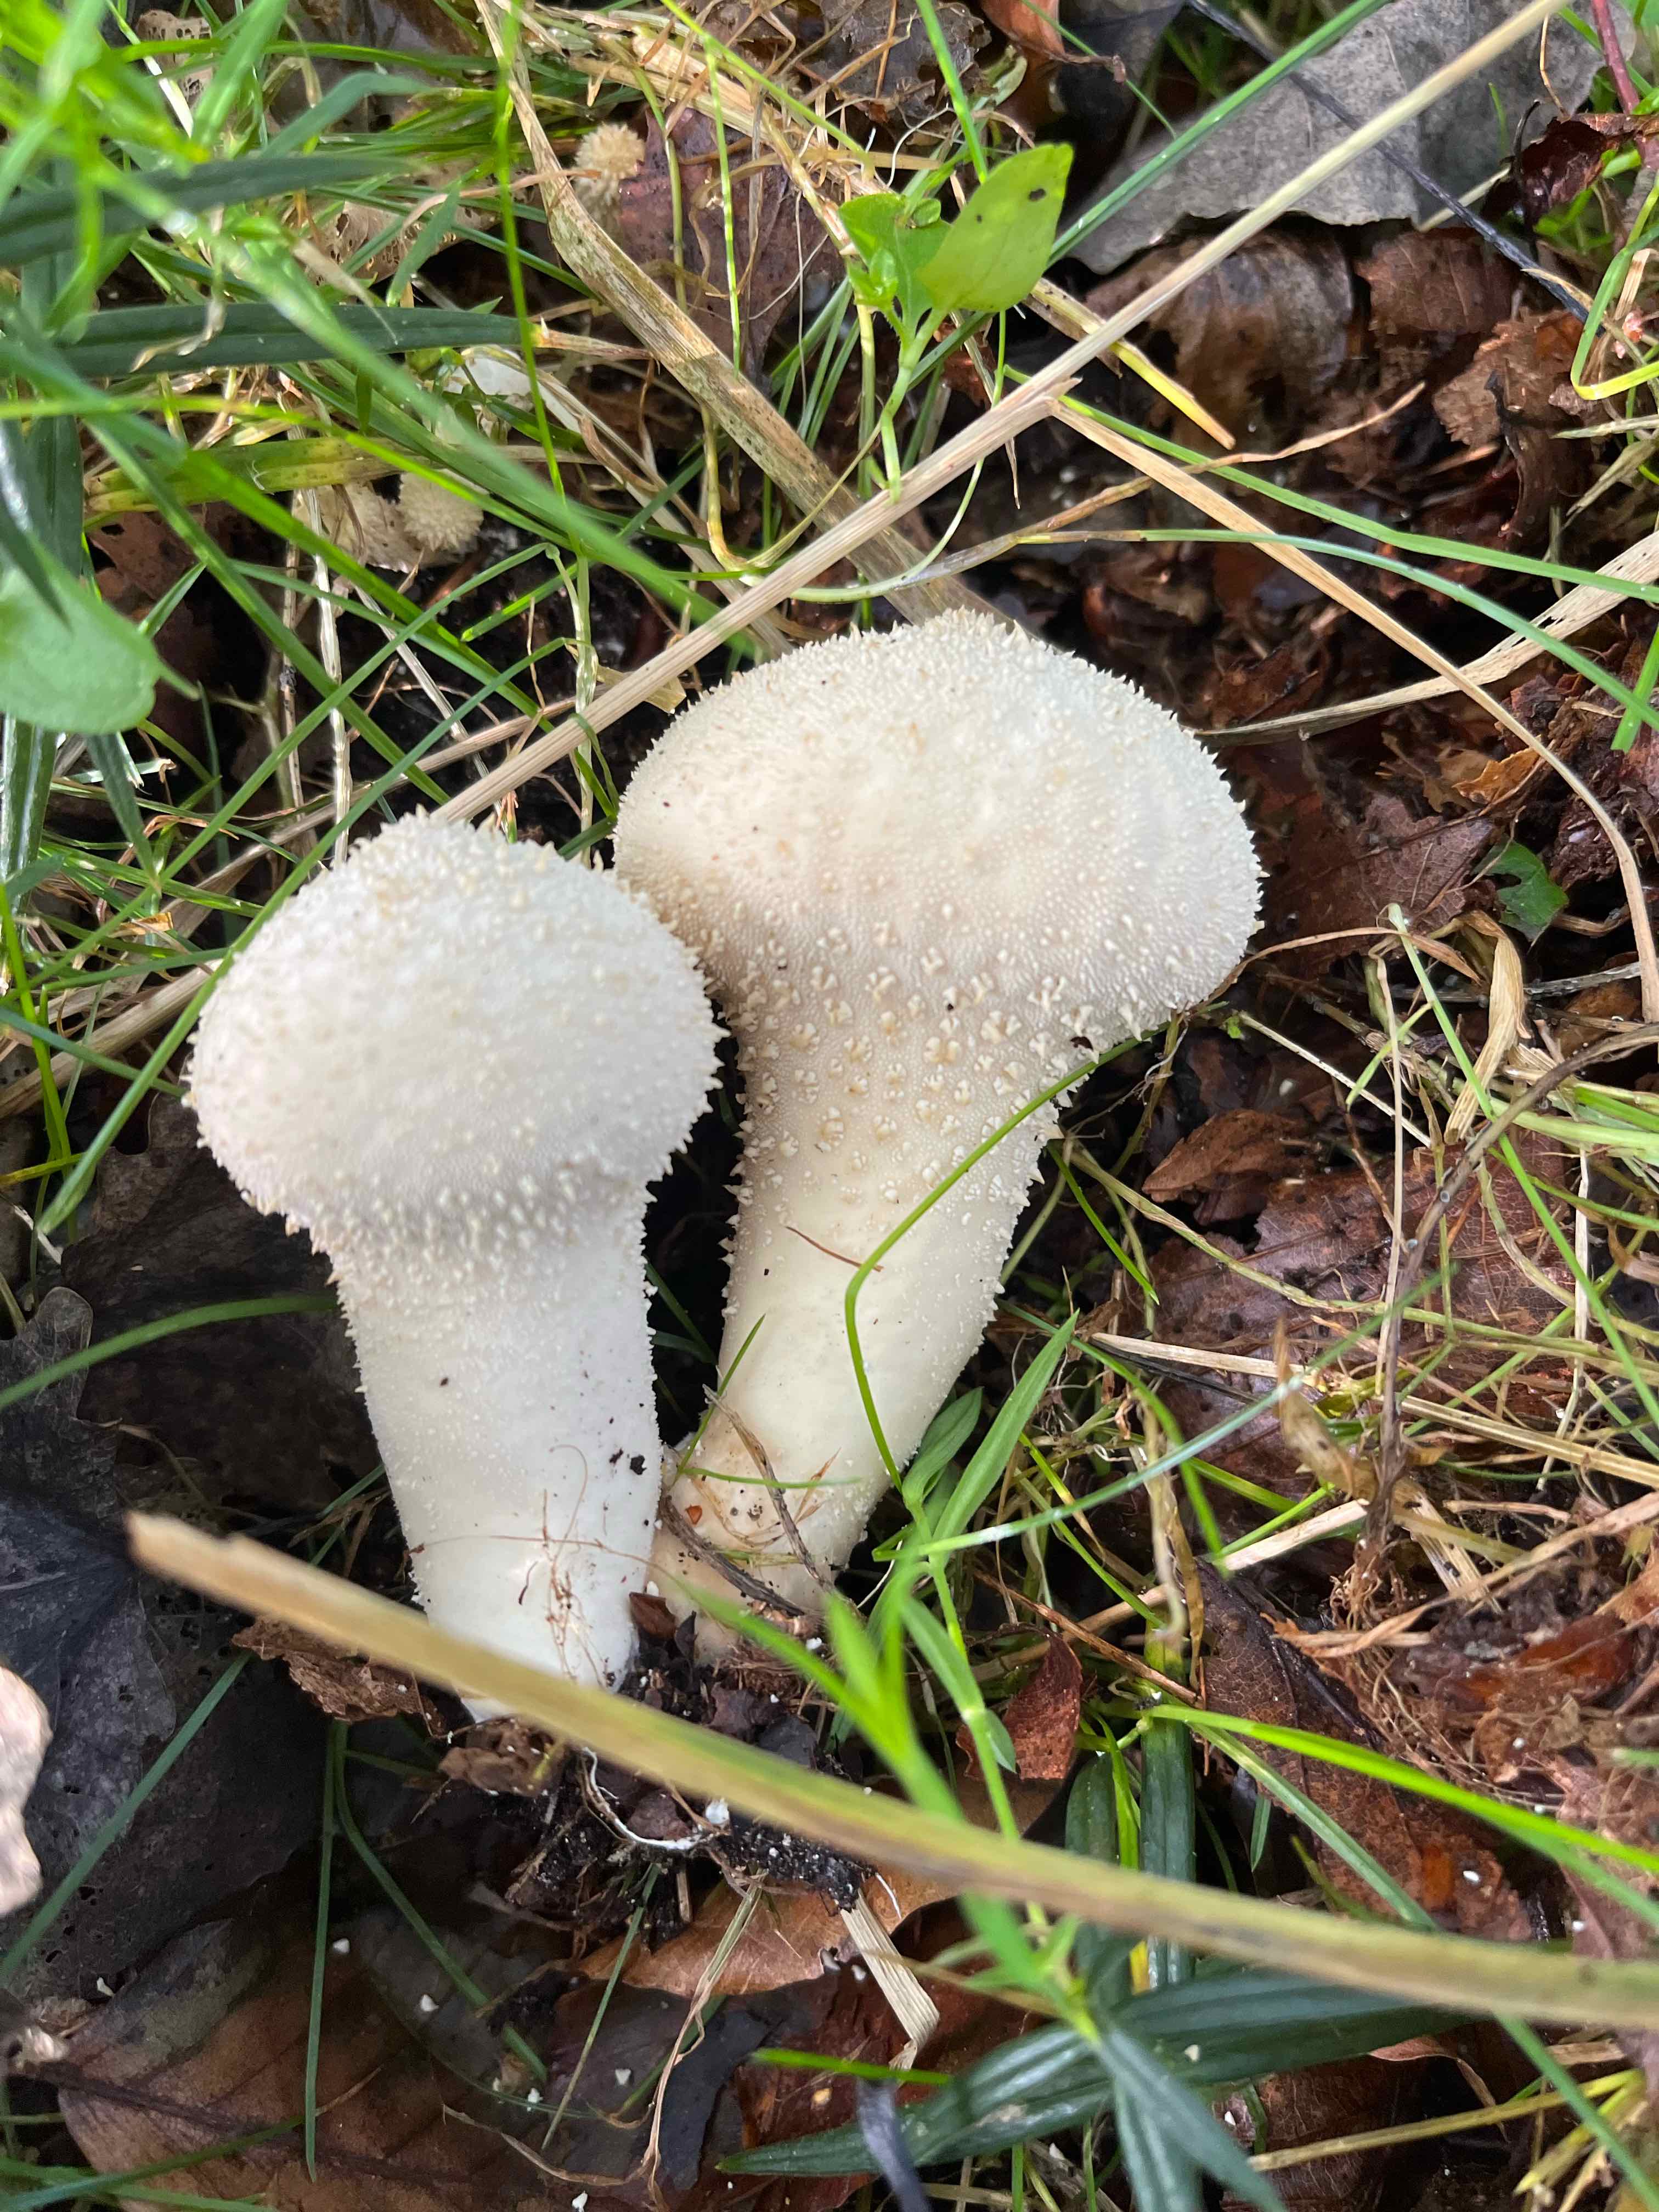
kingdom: Fungi
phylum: Basidiomycota
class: Agaricomycetes
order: Agaricales
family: Lycoperdaceae
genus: Lycoperdon
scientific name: Lycoperdon perlatum
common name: krystal-støvbold
